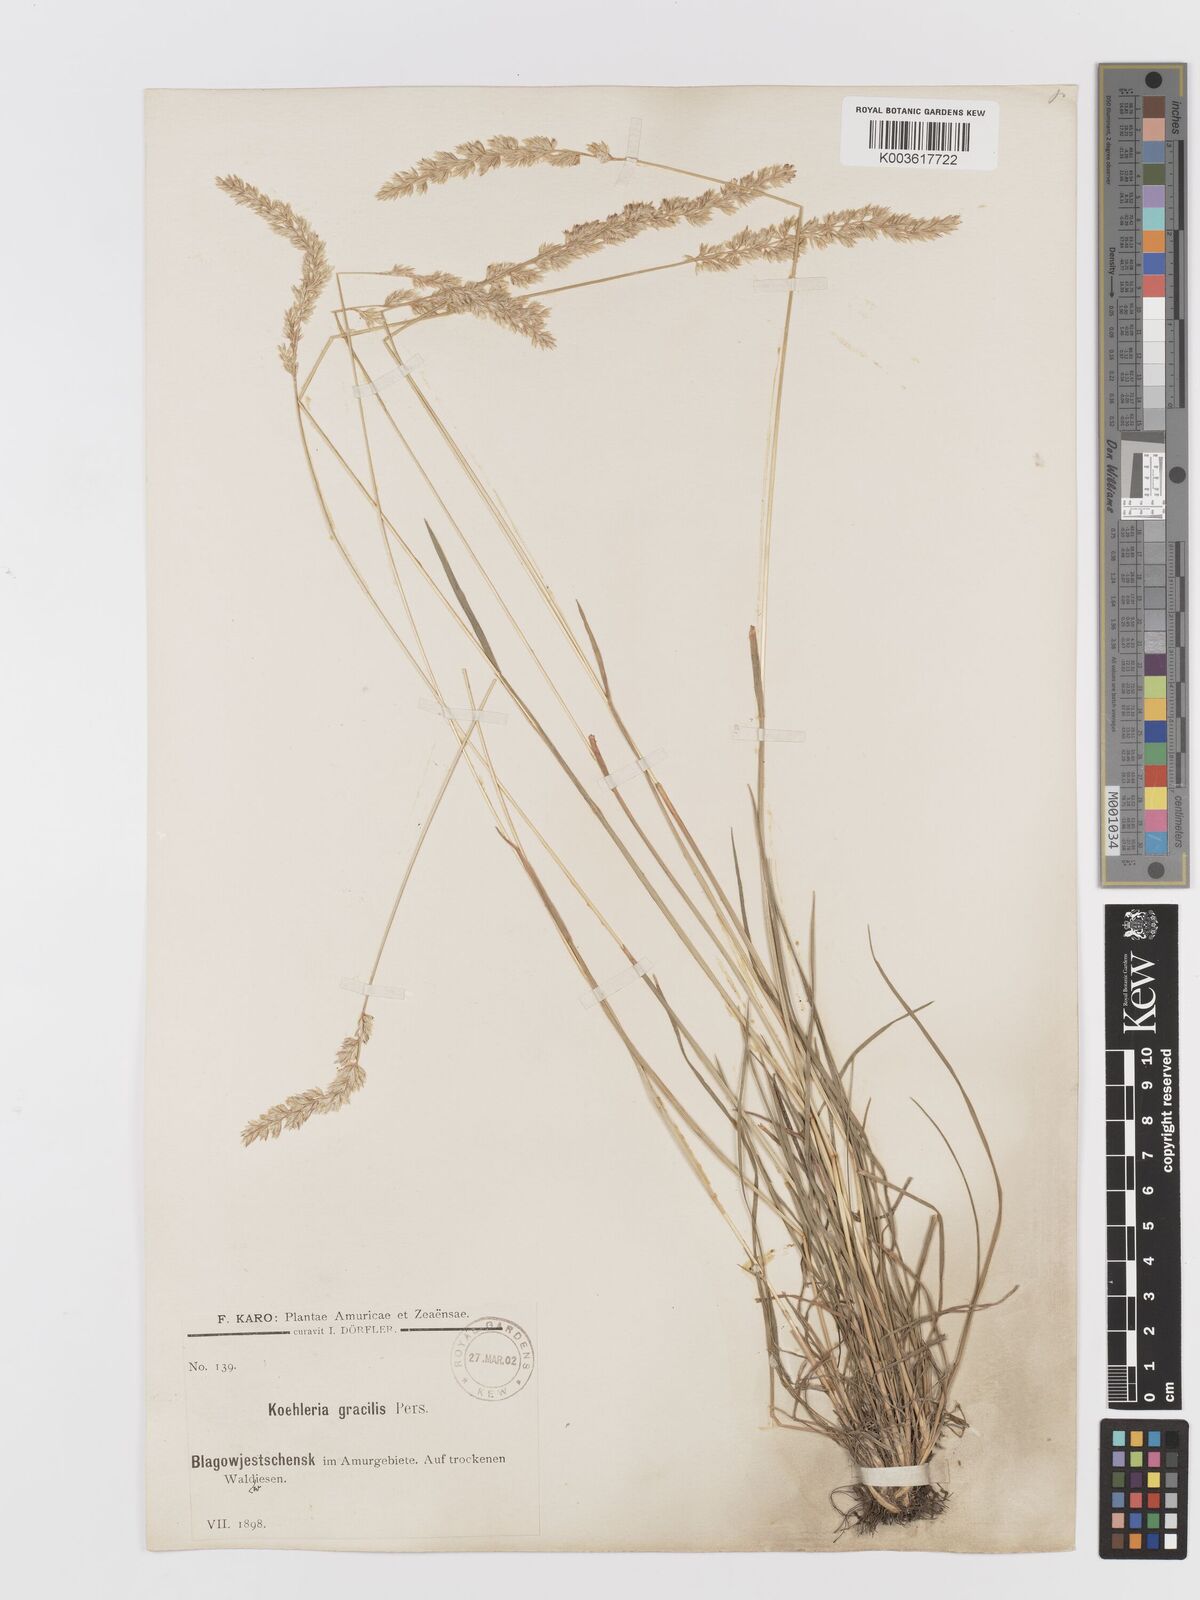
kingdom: Plantae
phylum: Tracheophyta
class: Liliopsida
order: Poales
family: Poaceae
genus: Koeleria
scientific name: Koeleria macrantha
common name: Crested hair-grass
